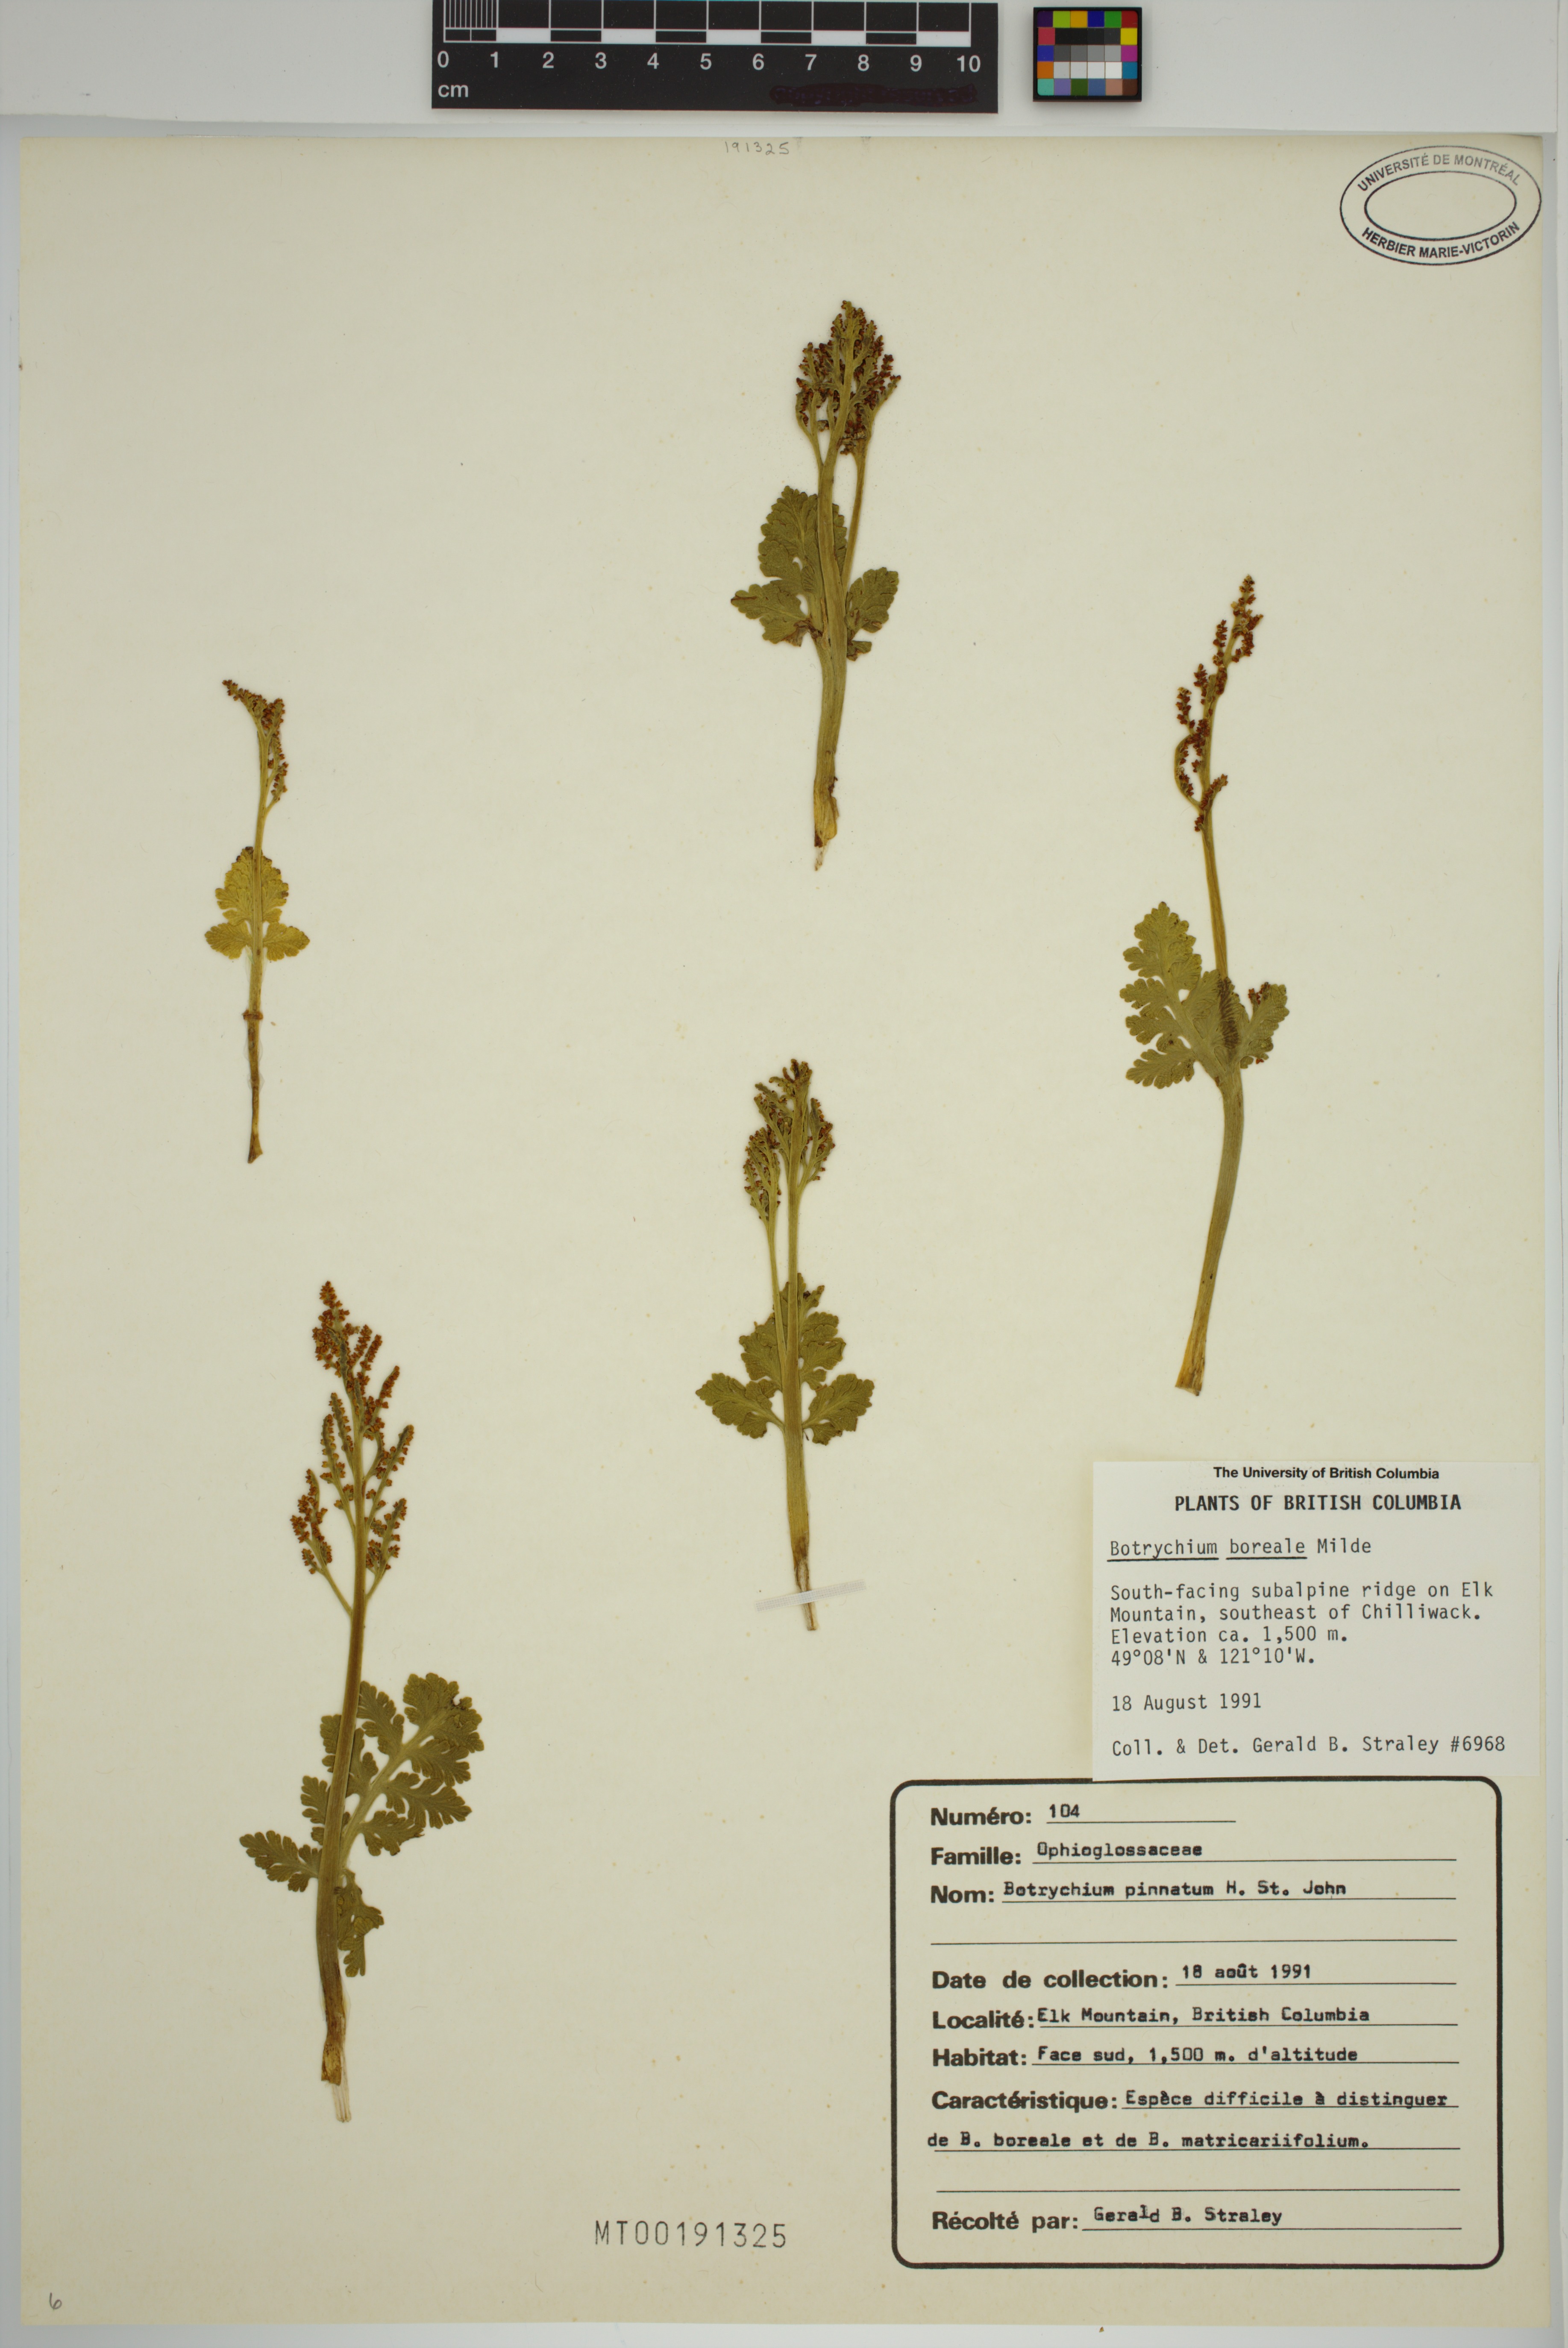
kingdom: Plantae
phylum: Tracheophyta
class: Polypodiopsida
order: Ophioglossales
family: Ophioglossaceae
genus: Botrychium
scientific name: Botrychium pinnatum
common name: Northwestern moonwort
